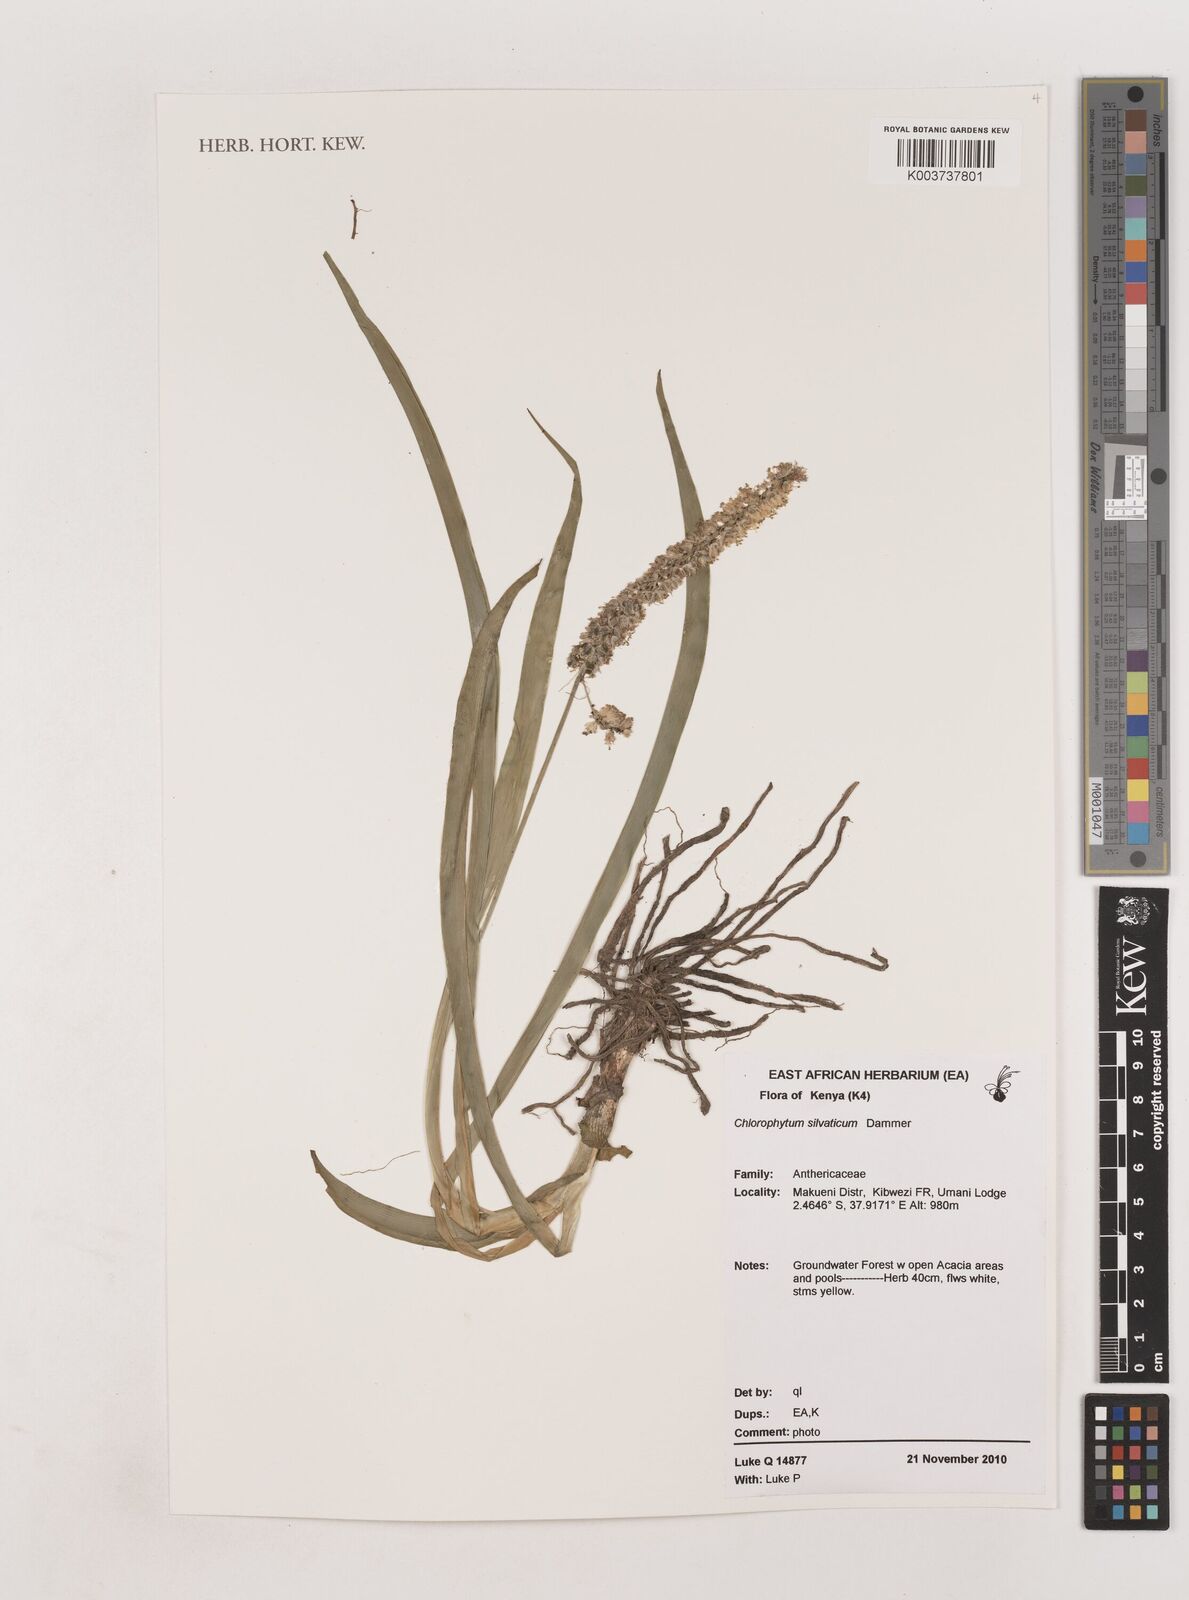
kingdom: Plantae
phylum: Tracheophyta
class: Liliopsida
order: Asparagales
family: Asparagaceae
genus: Chlorophytum
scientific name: Chlorophytum africanum
